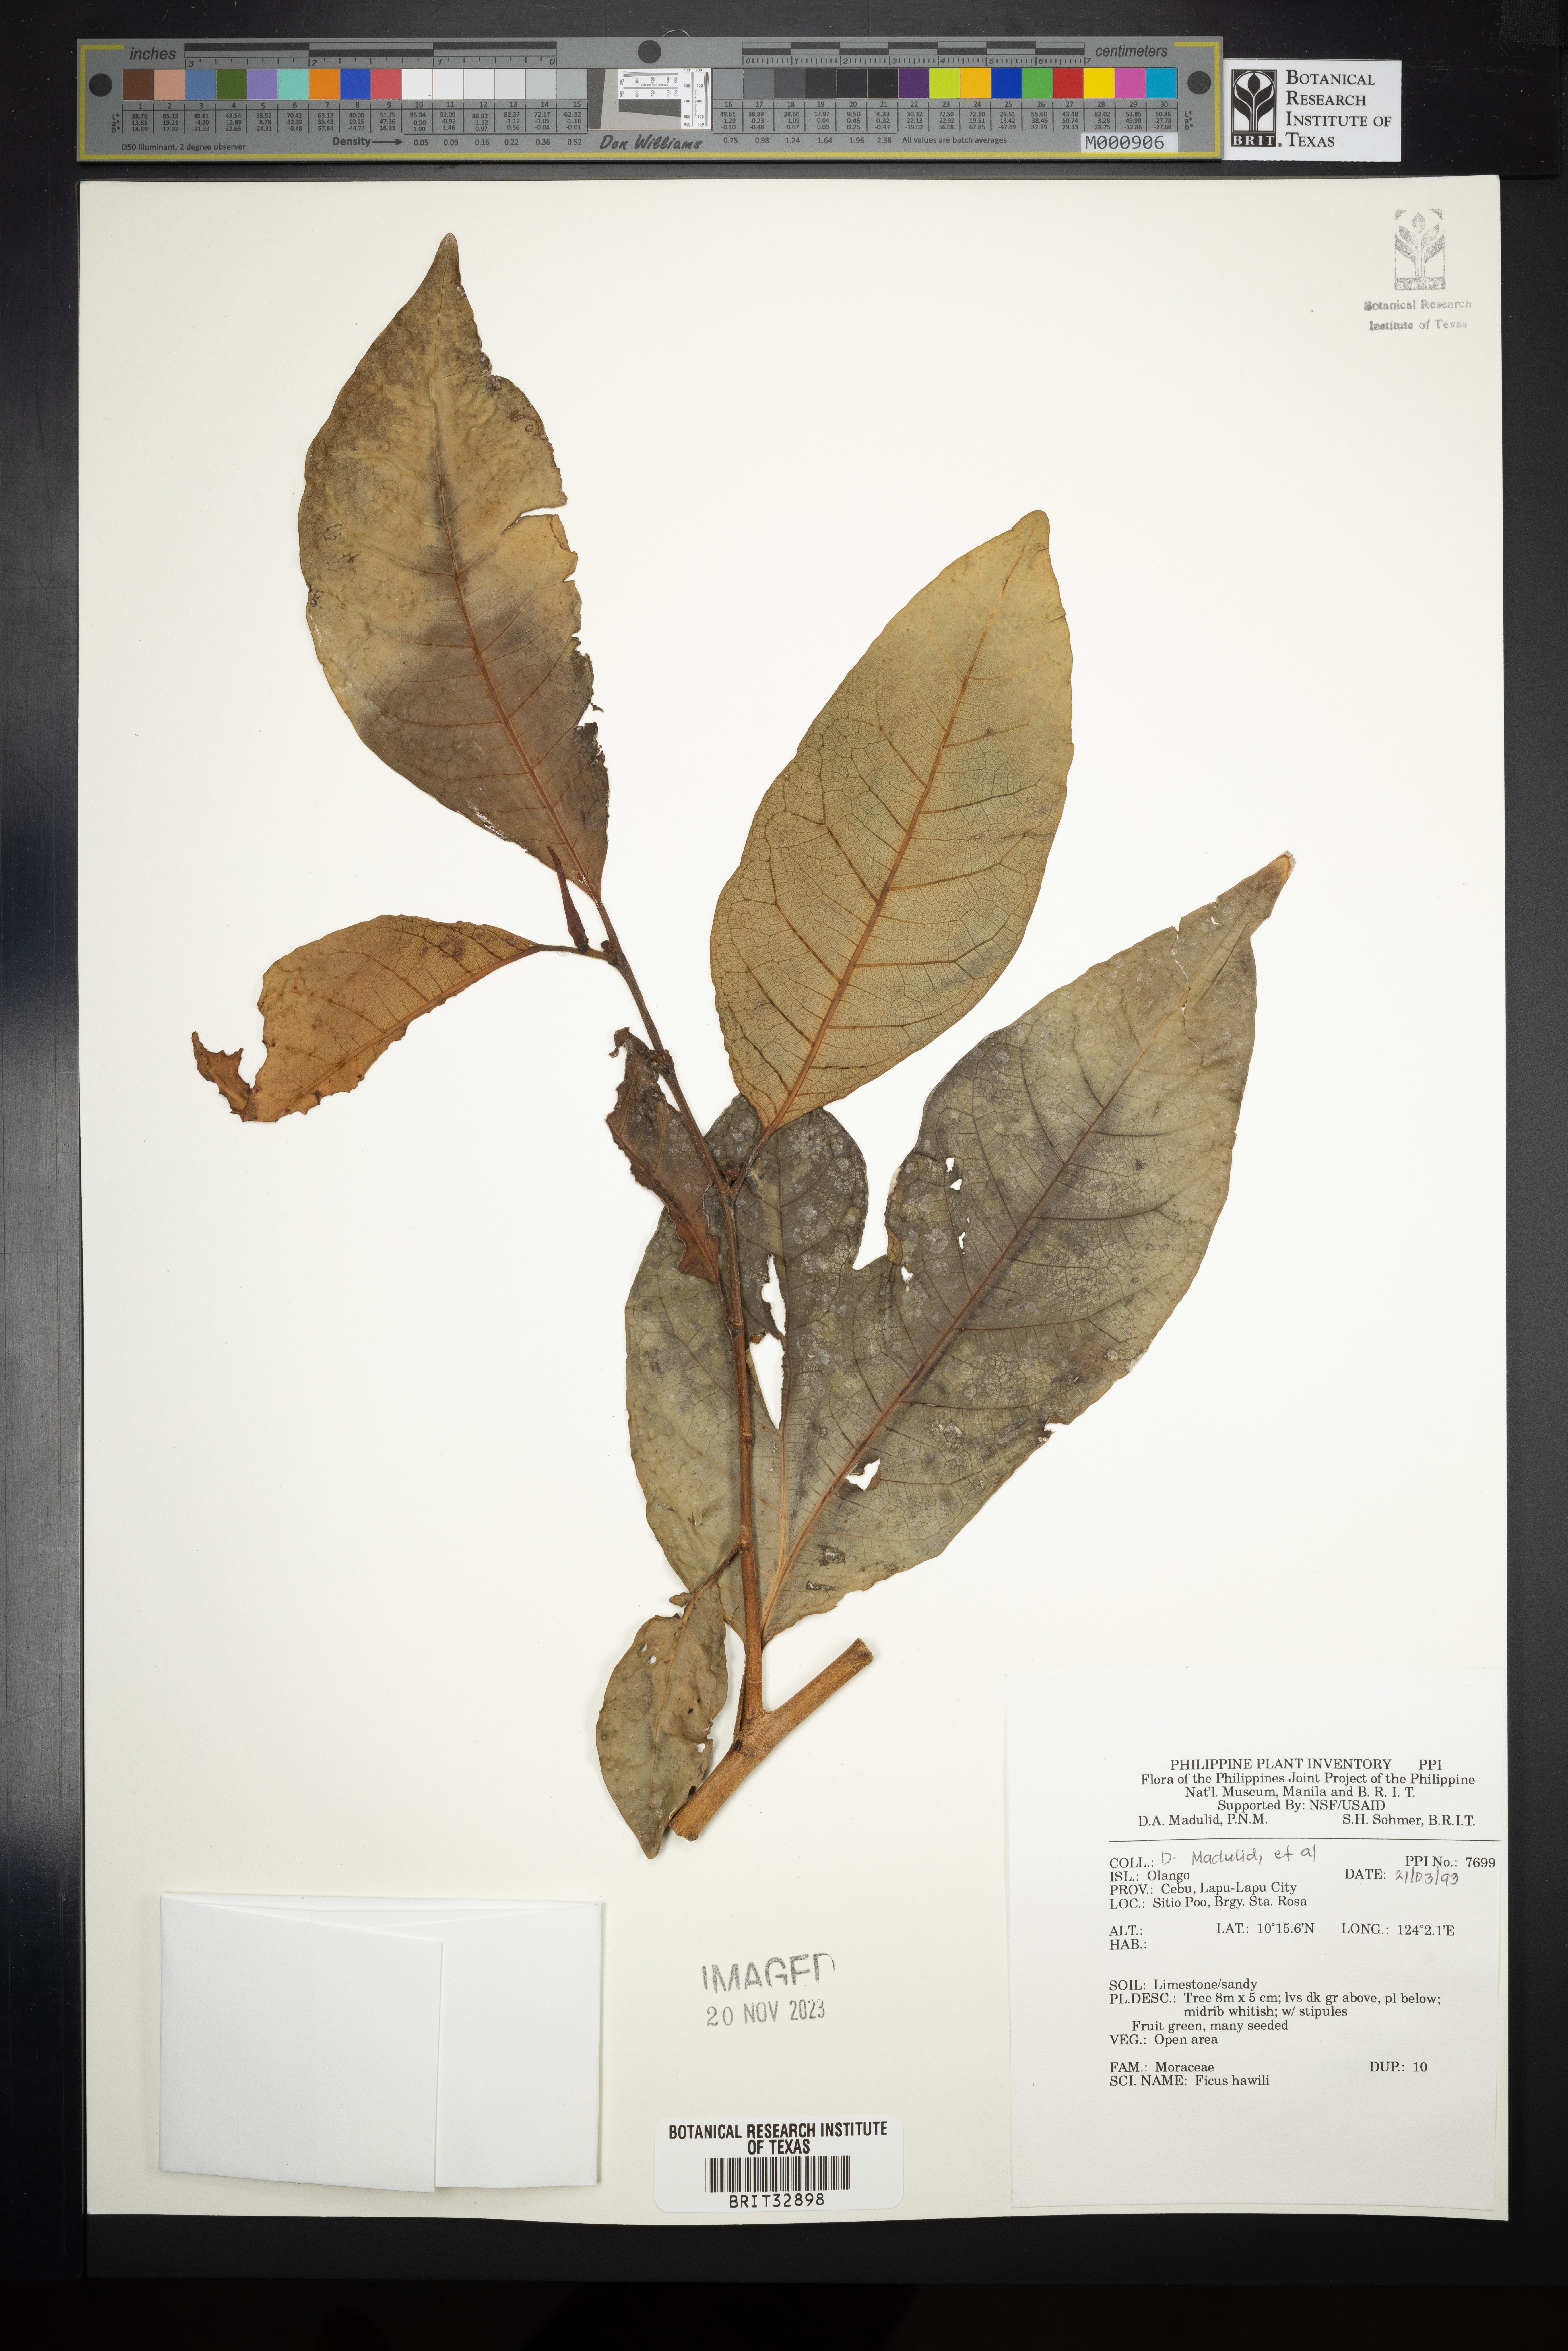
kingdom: Plantae
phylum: Tracheophyta
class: Magnoliopsida
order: Rosales
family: Moraceae
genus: Ficus
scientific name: Ficus pubigera
